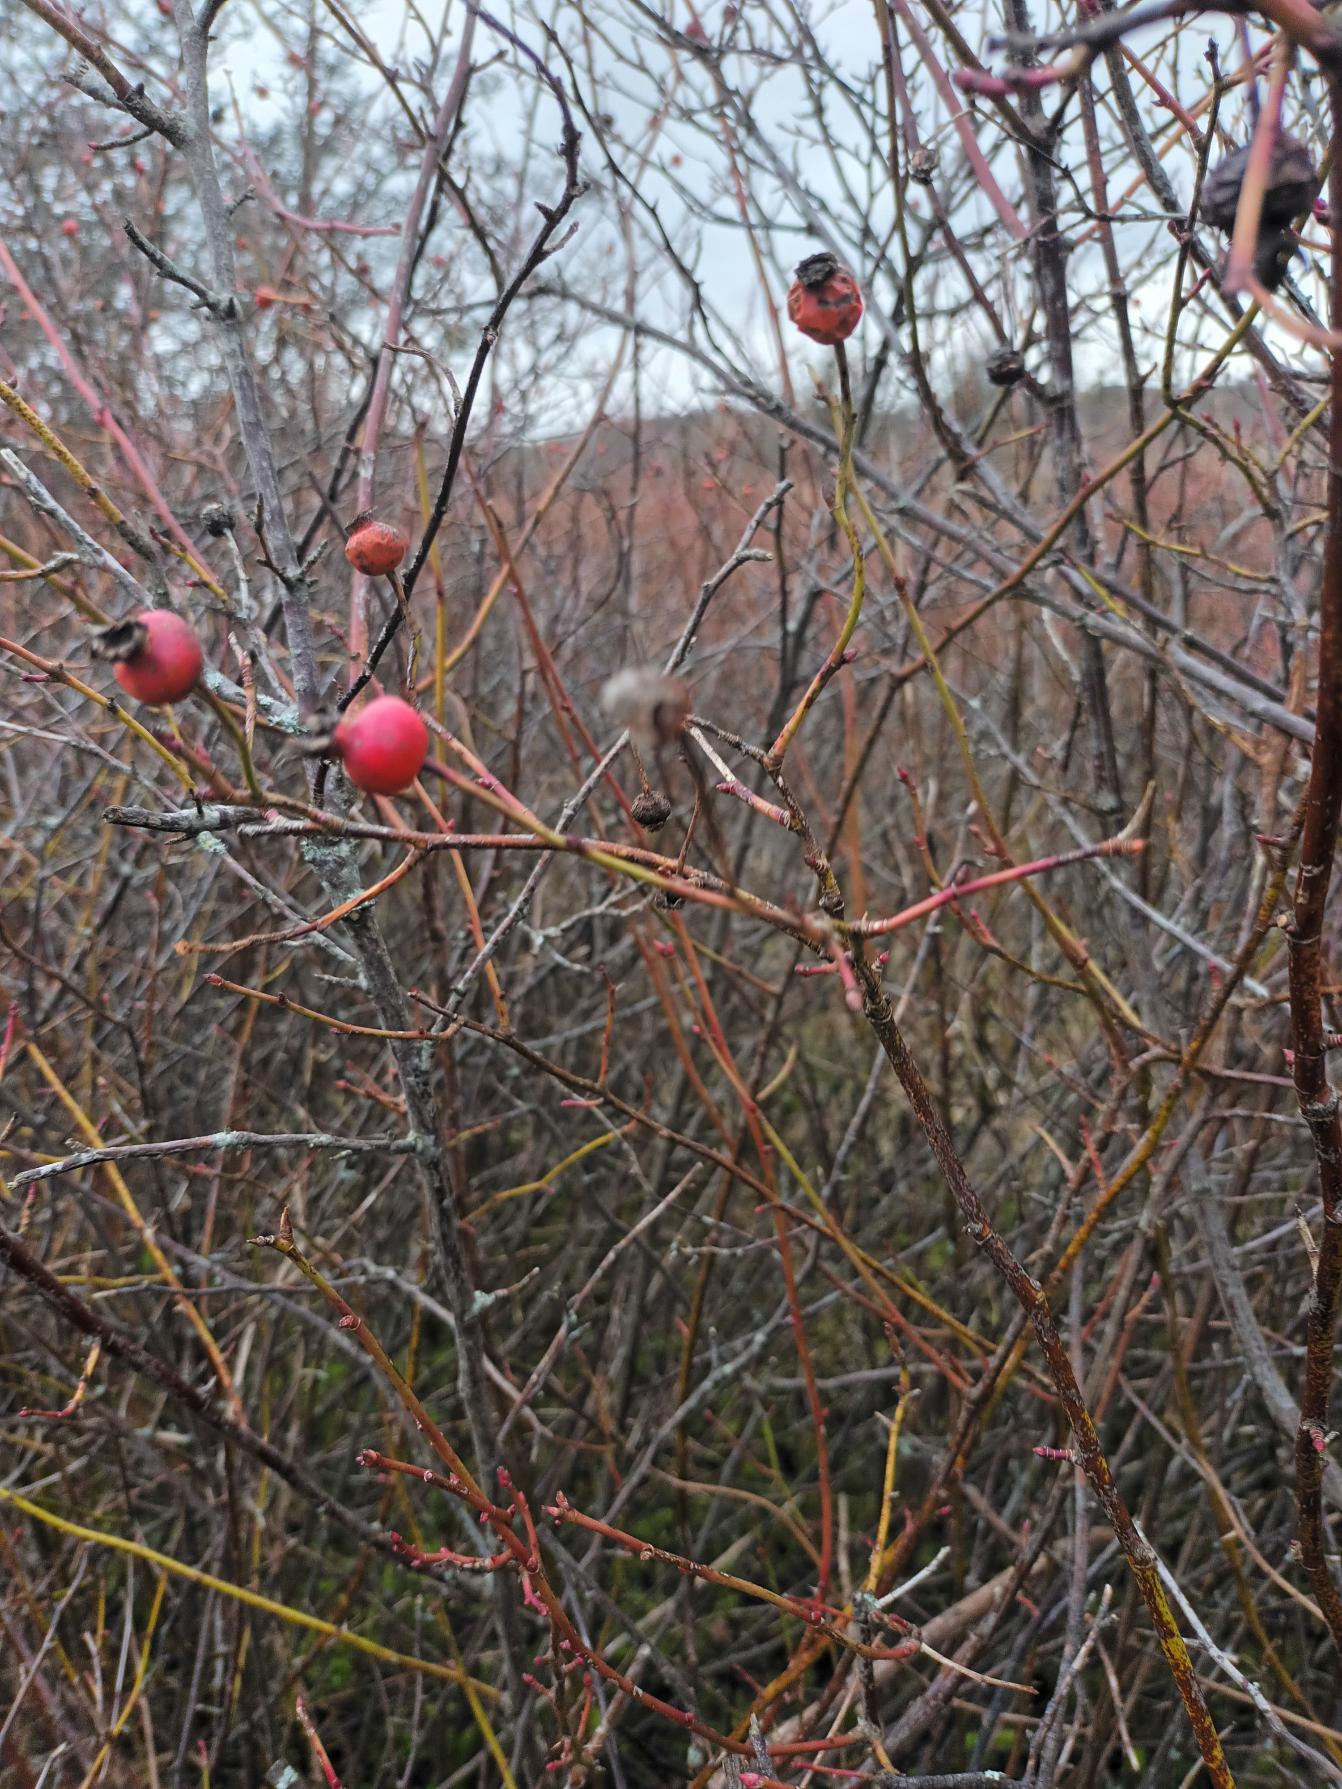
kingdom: Plantae
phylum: Tracheophyta
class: Magnoliopsida
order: Rosales
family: Rosaceae
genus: Rosa
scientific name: Rosa blanda
